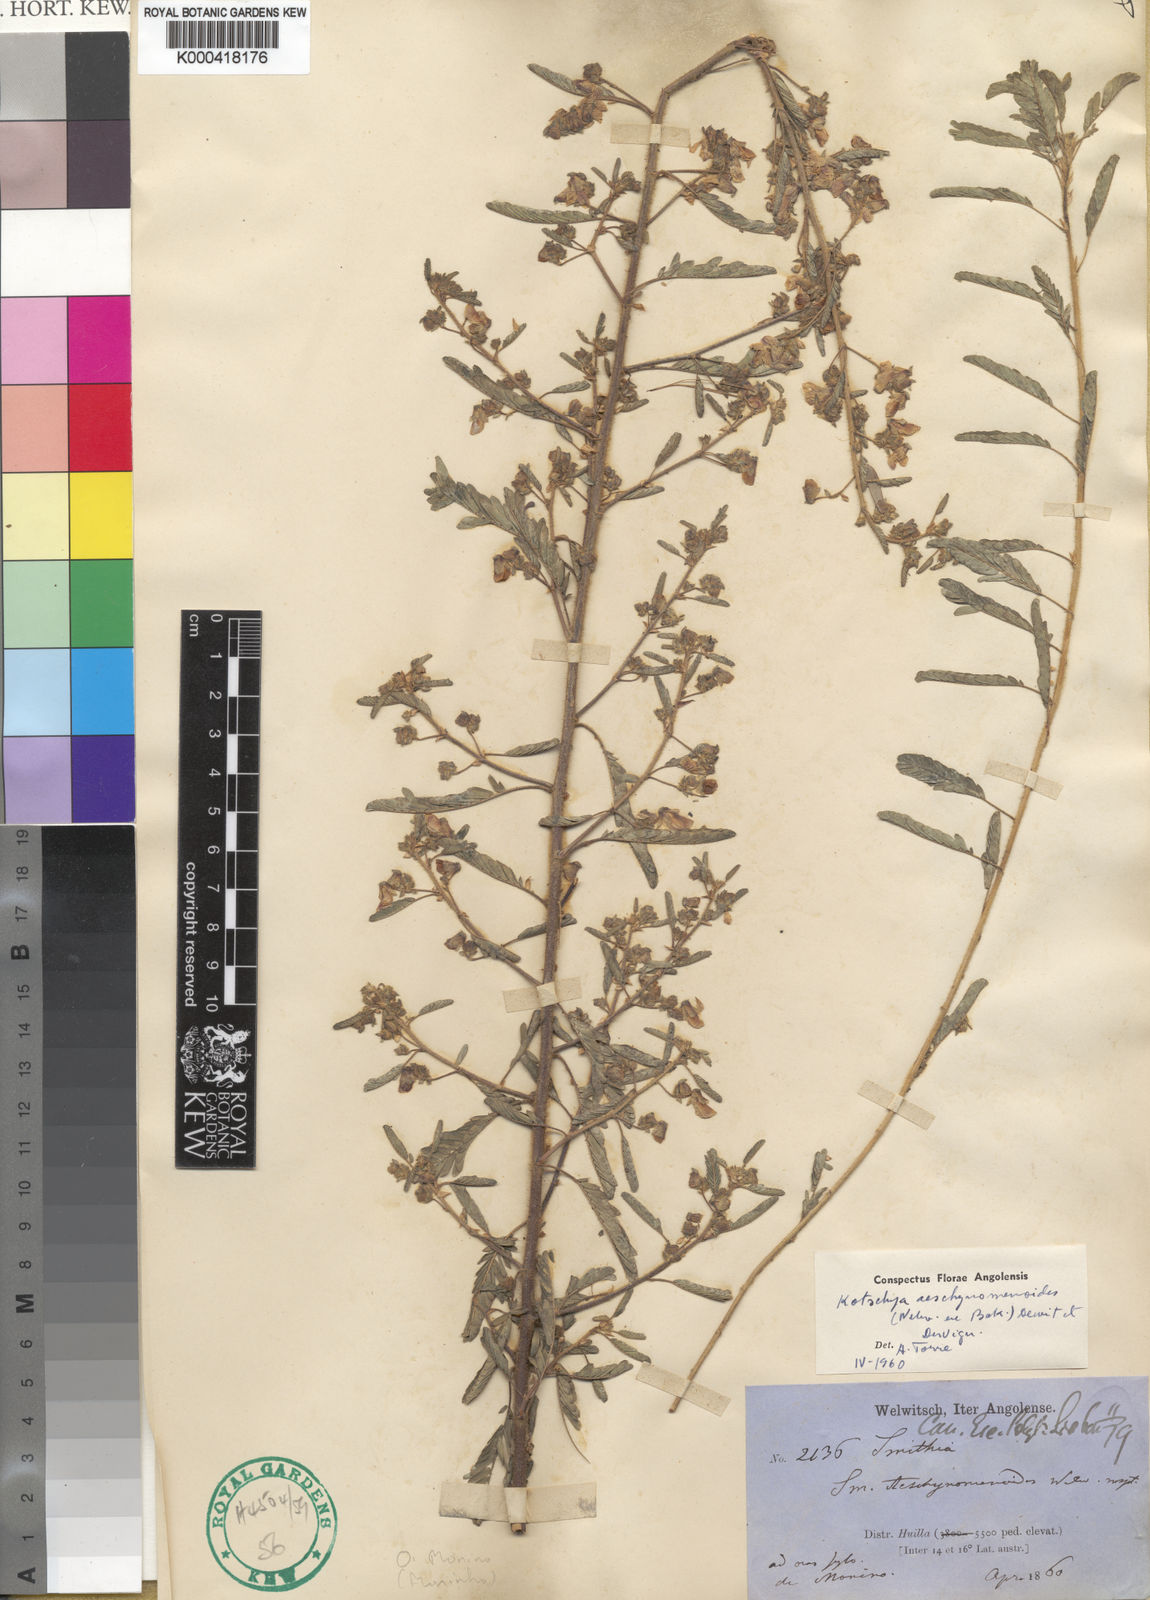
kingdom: Plantae
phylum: Tracheophyta
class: Magnoliopsida
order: Fabales
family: Fabaceae
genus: Kotschya
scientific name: Kotschya aeschynomenoides
